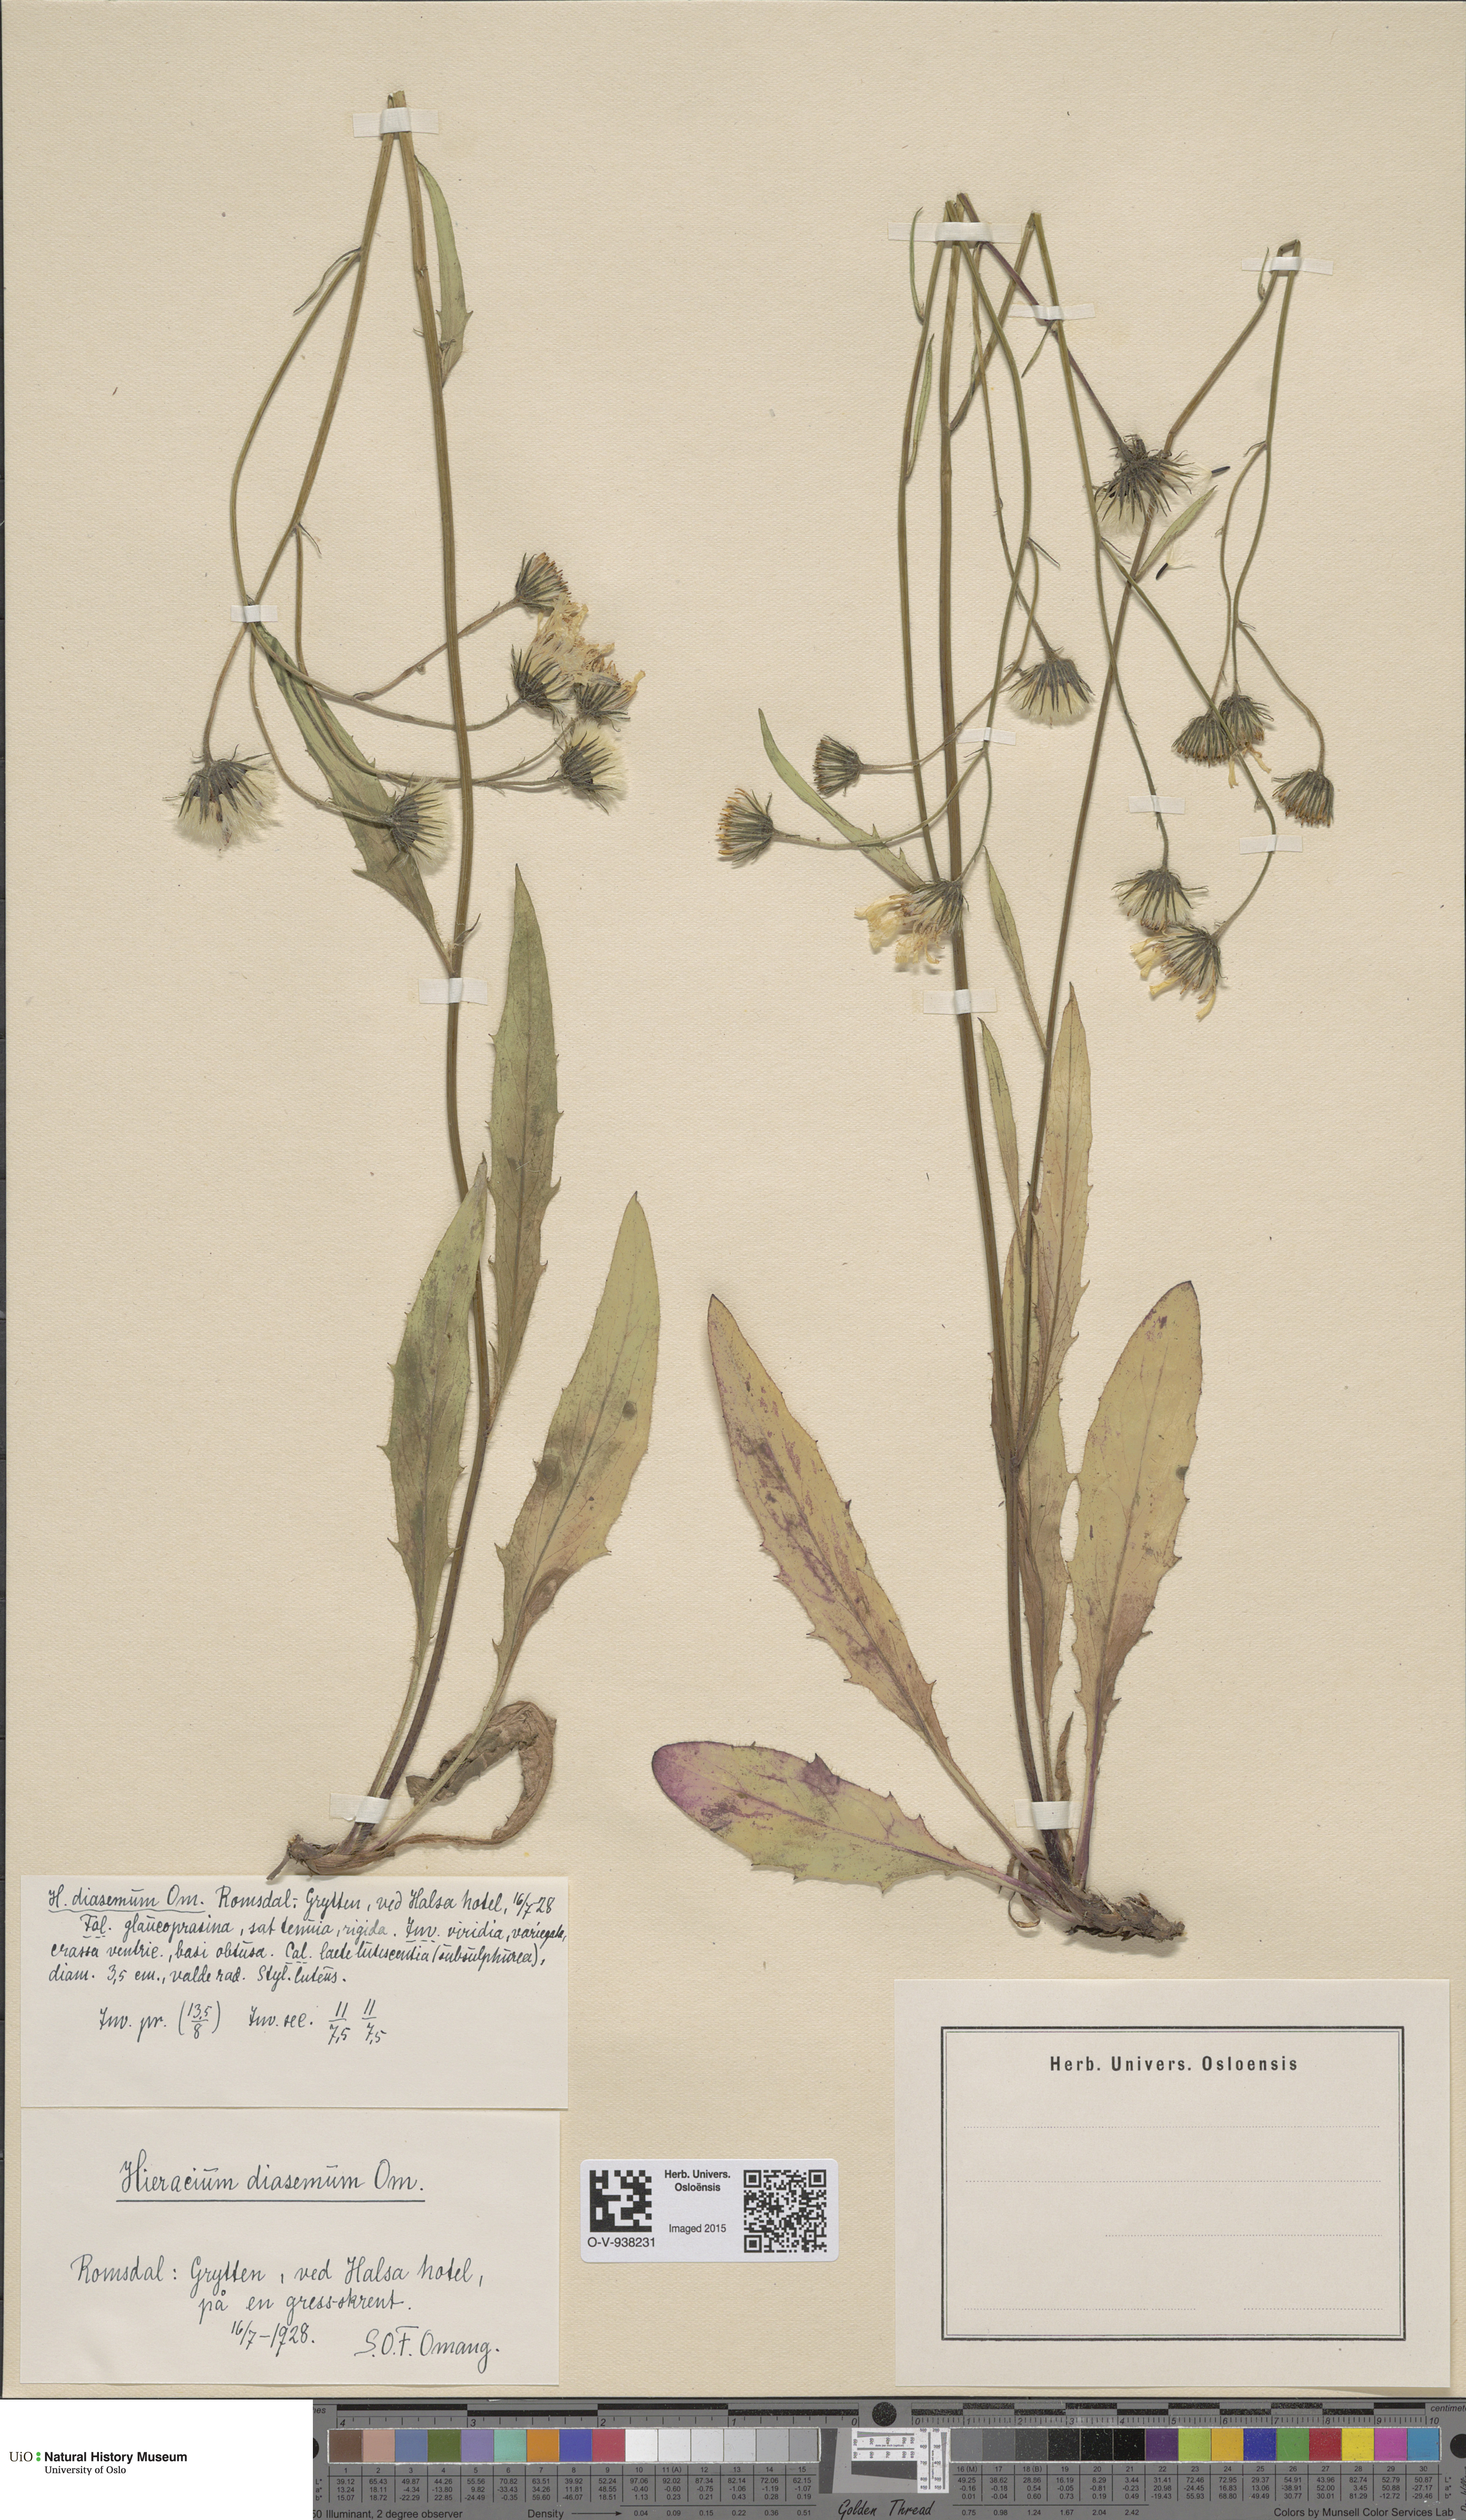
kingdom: Plantae
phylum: Tracheophyta
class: Magnoliopsida
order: Asterales
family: Asteraceae
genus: Hieracium
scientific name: Hieracium saxifragum
